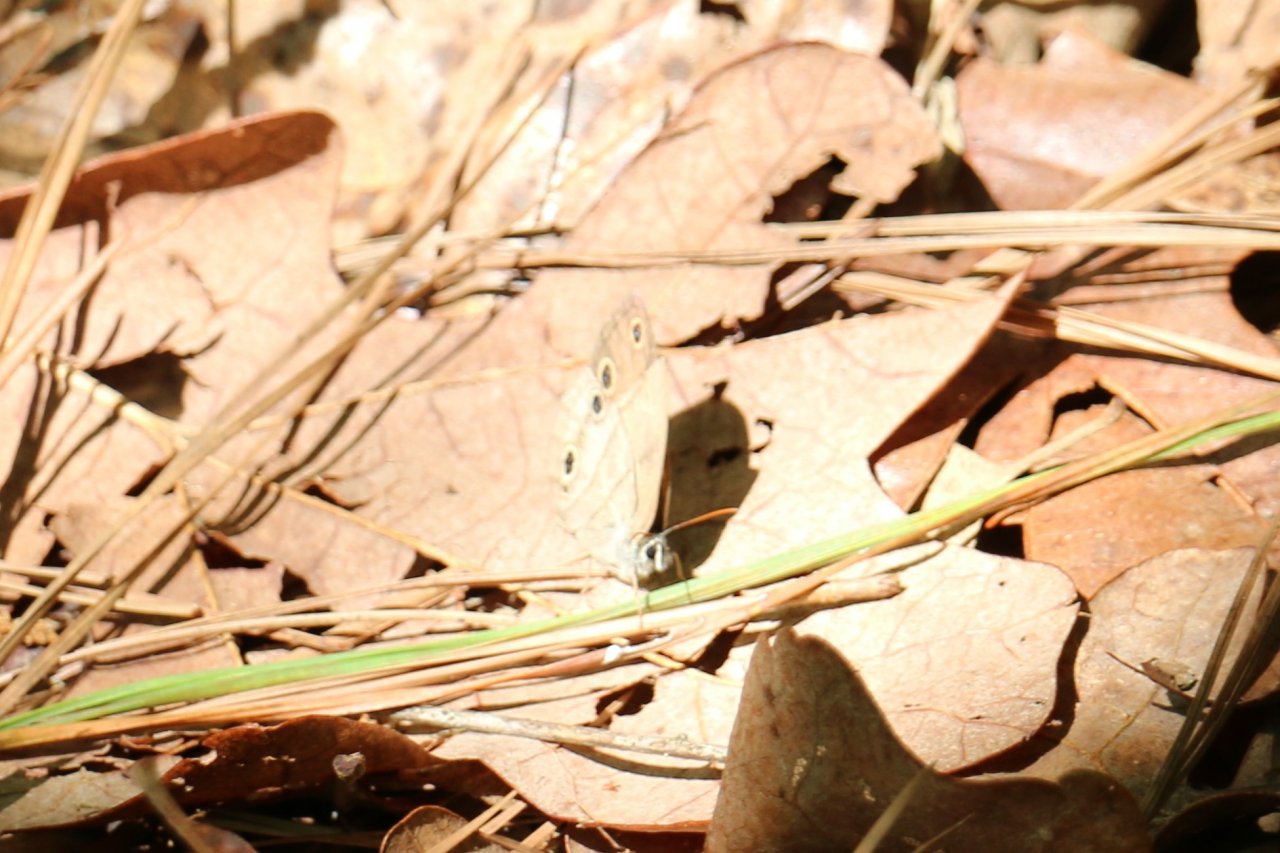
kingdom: Animalia
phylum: Arthropoda
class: Insecta
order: Lepidoptera
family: Nymphalidae
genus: Euptychia
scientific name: Euptychia cymela
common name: Little Wood Satyr
